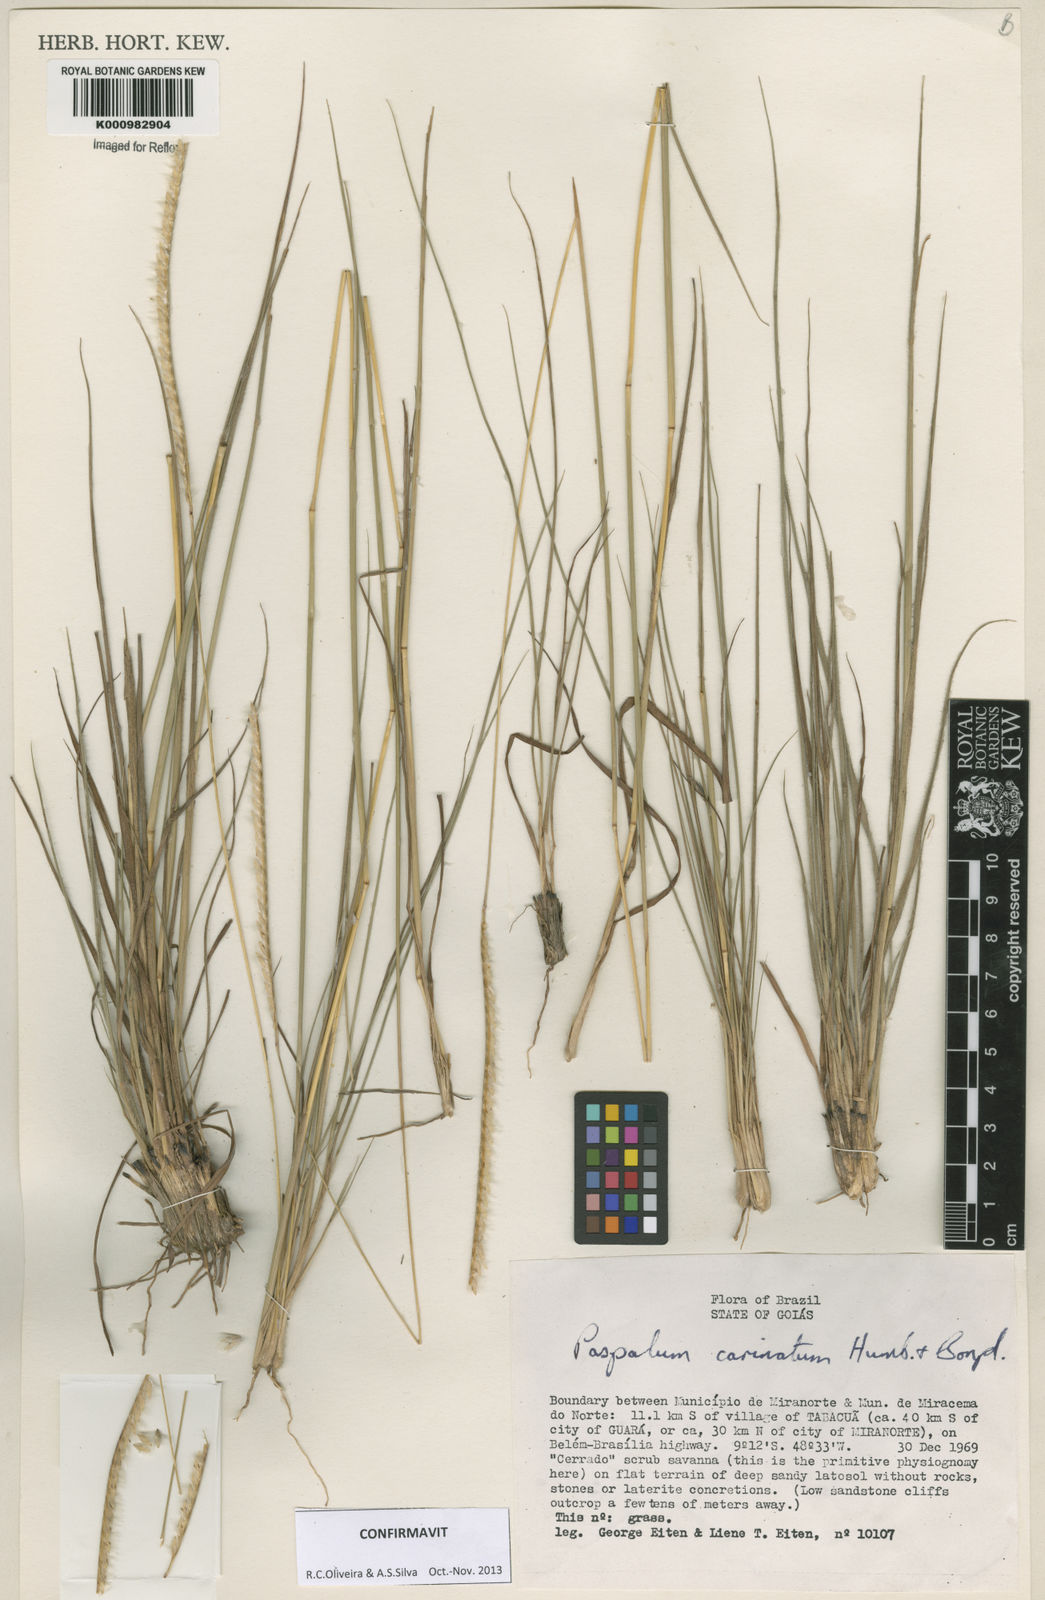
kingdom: Plantae
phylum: Tracheophyta
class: Liliopsida
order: Poales
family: Poaceae
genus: Paspalum
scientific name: Paspalum
